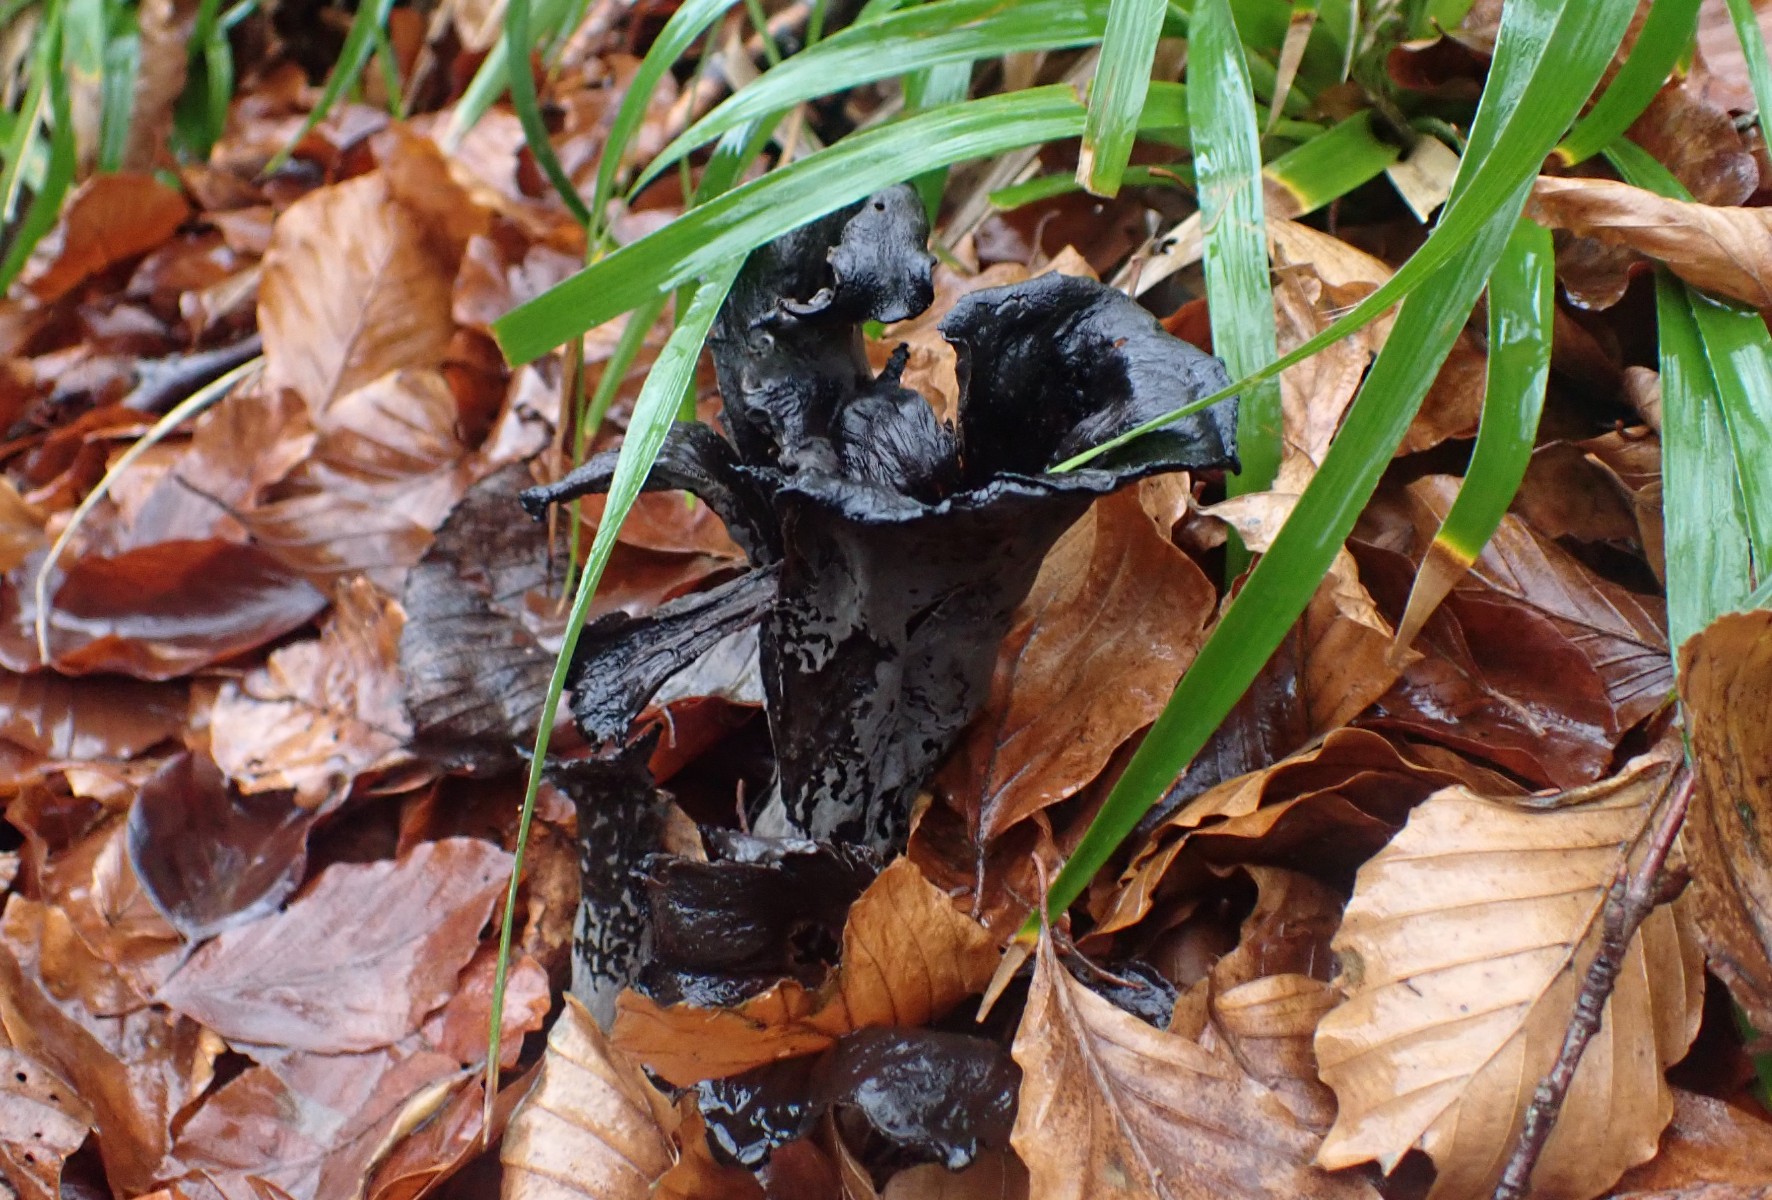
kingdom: Fungi
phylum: Basidiomycota
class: Agaricomycetes
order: Cantharellales
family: Hydnaceae
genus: Craterellus
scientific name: Craterellus cornucopioides
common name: trompetsvamp
